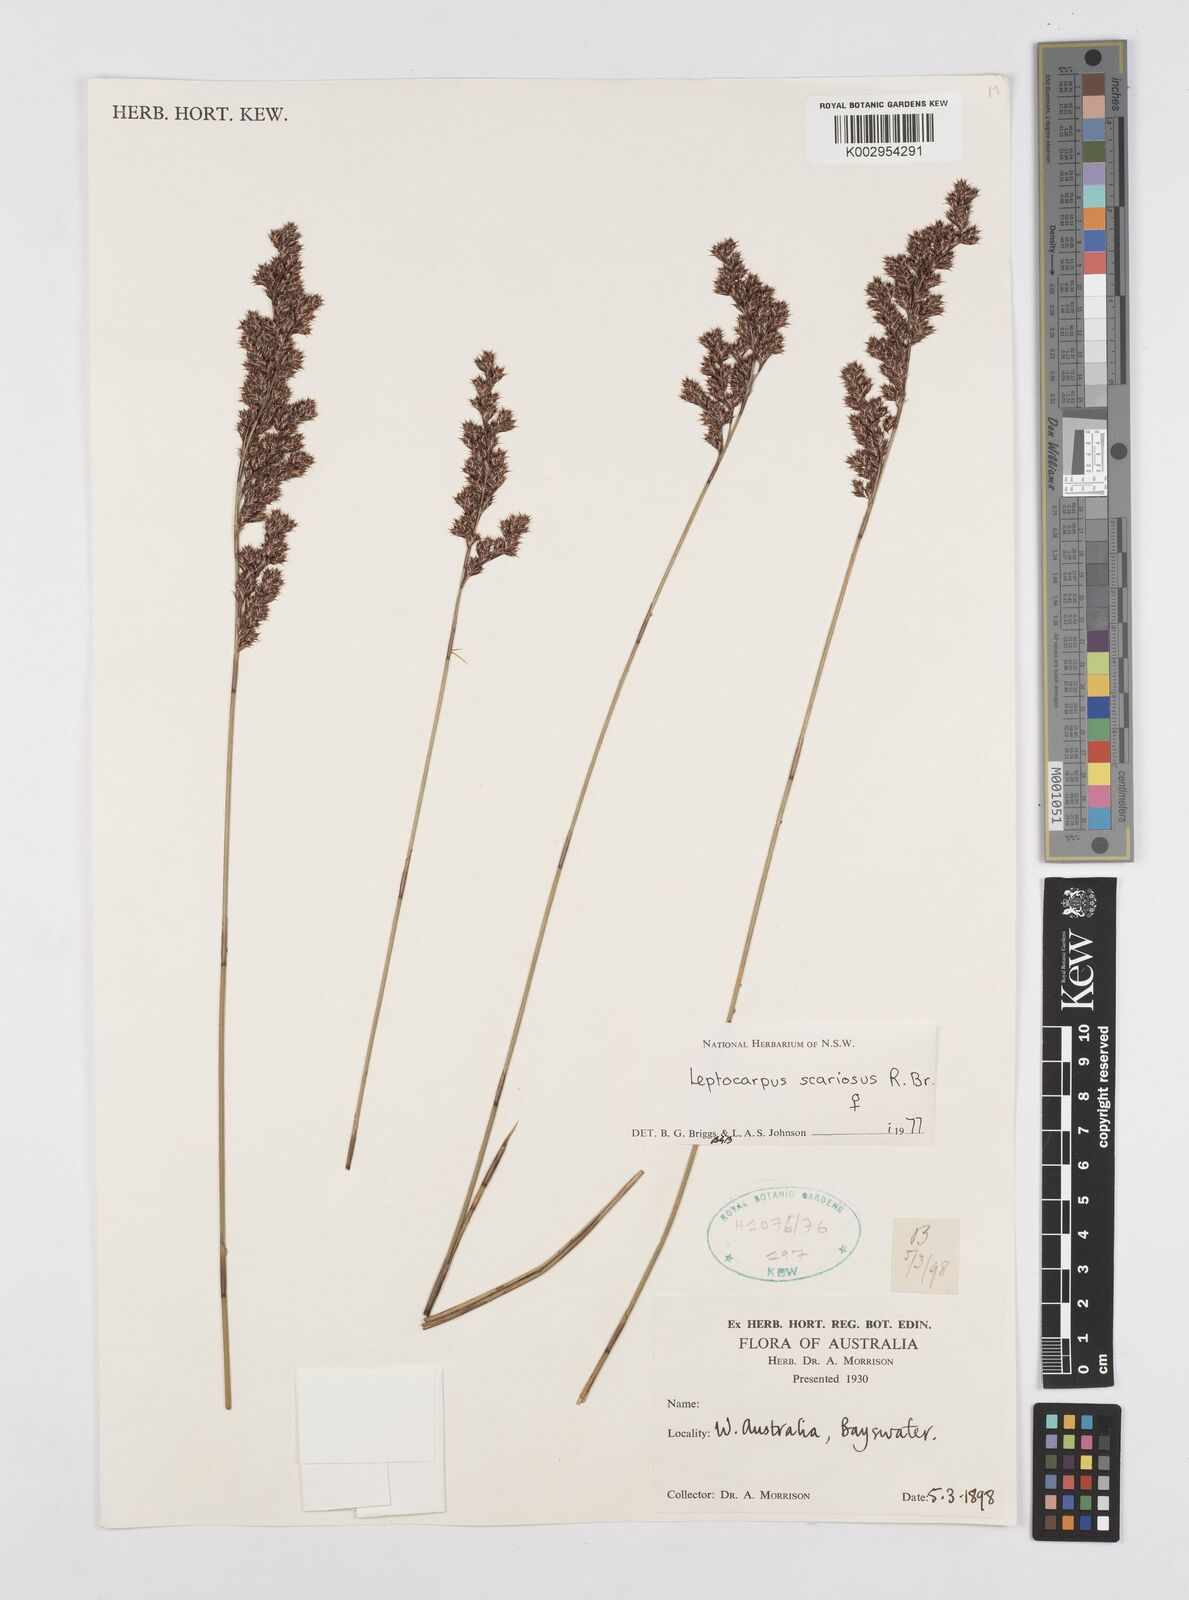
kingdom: Plantae
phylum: Tracheophyta
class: Liliopsida
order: Poales
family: Restionaceae
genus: Leptocarpus
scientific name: Leptocarpus scariosus
